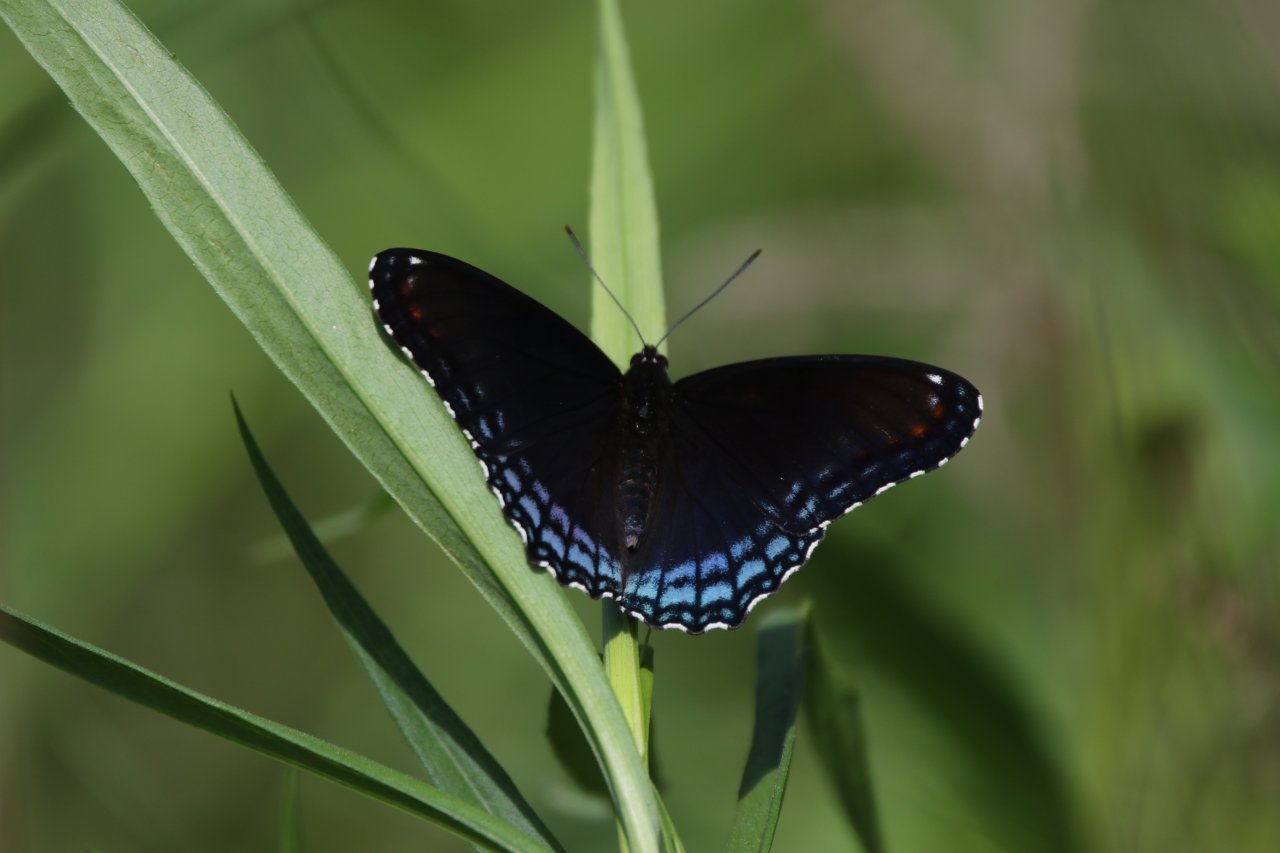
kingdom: Animalia
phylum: Arthropoda
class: Insecta
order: Lepidoptera
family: Nymphalidae
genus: Limenitis
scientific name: Limenitis astyanax
